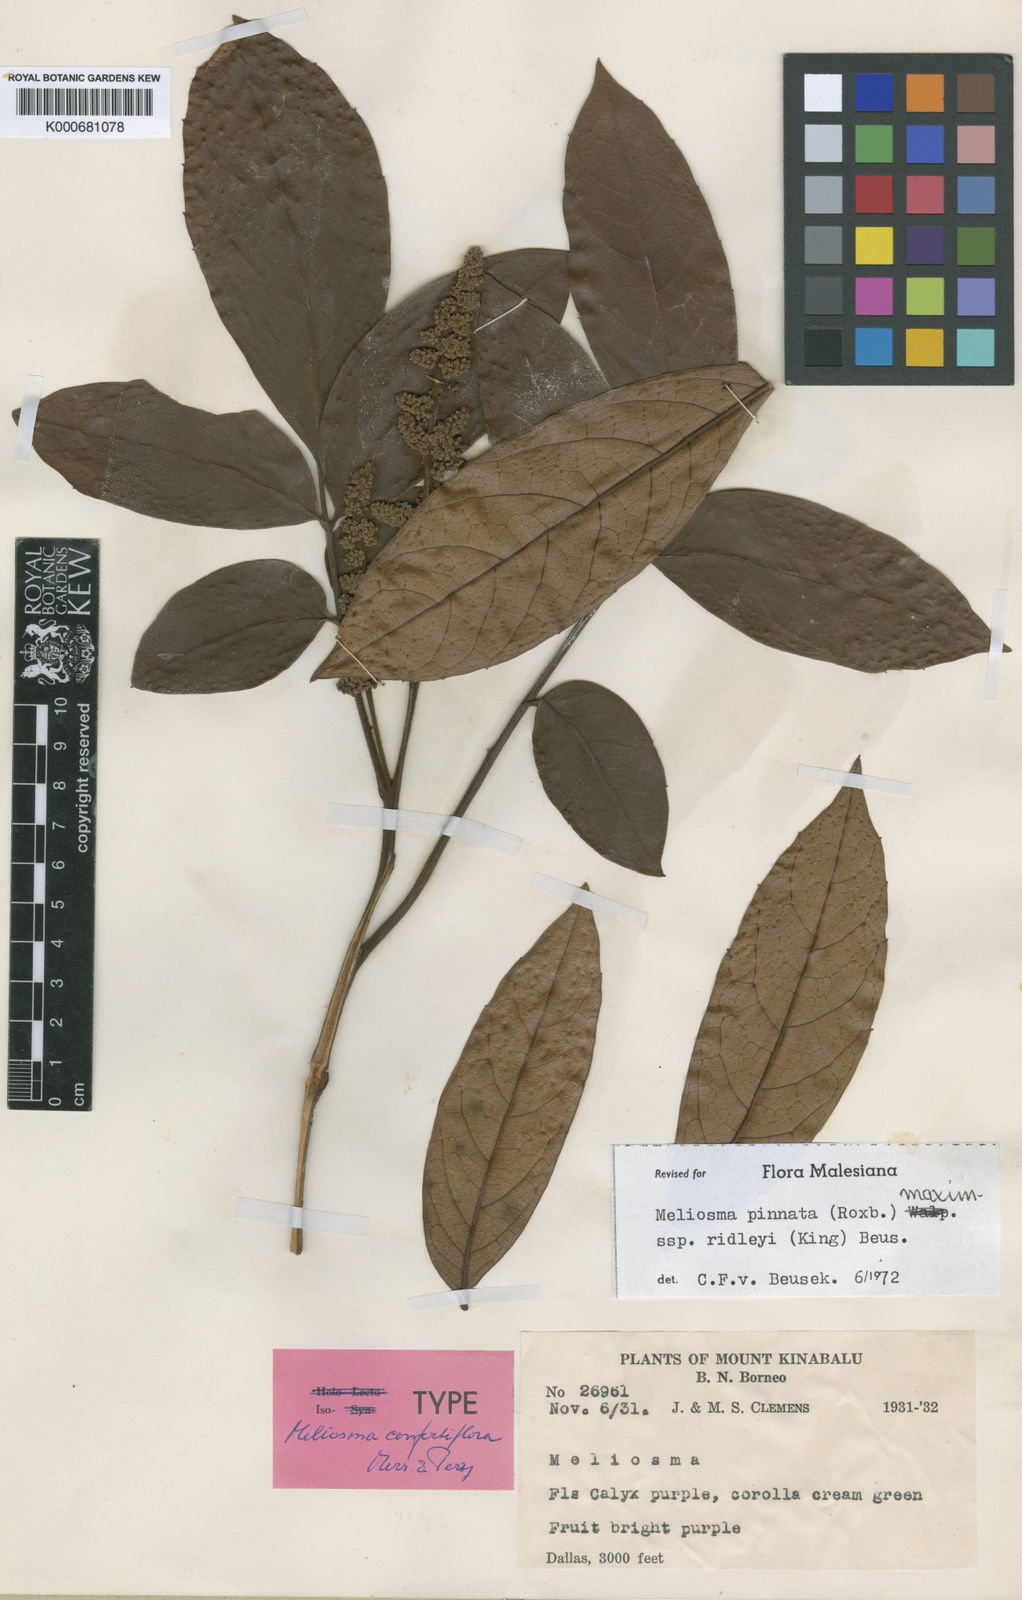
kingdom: Plantae
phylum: Tracheophyta
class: Magnoliopsida
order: Proteales
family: Sabiaceae
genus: Meliosma
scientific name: Meliosma pinnata
